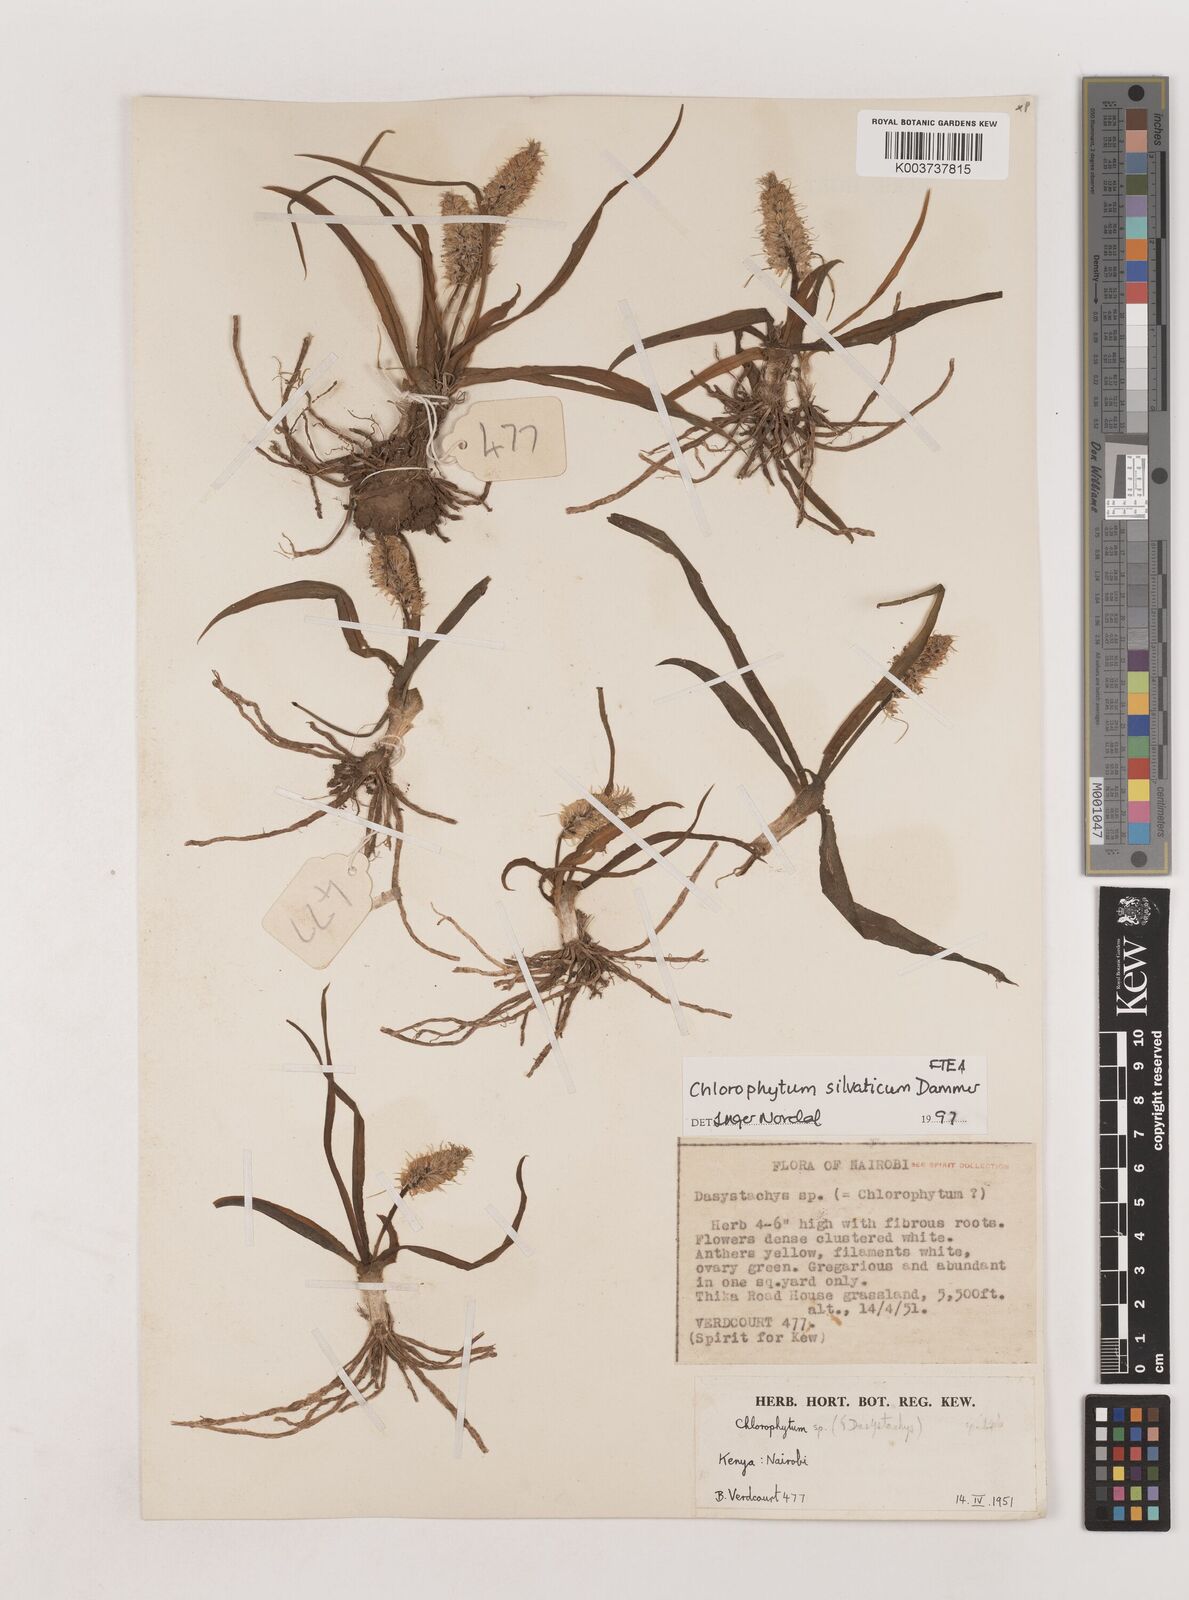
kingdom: Plantae
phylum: Tracheophyta
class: Liliopsida
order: Asparagales
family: Asparagaceae
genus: Chlorophytum
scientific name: Chlorophytum africanum
